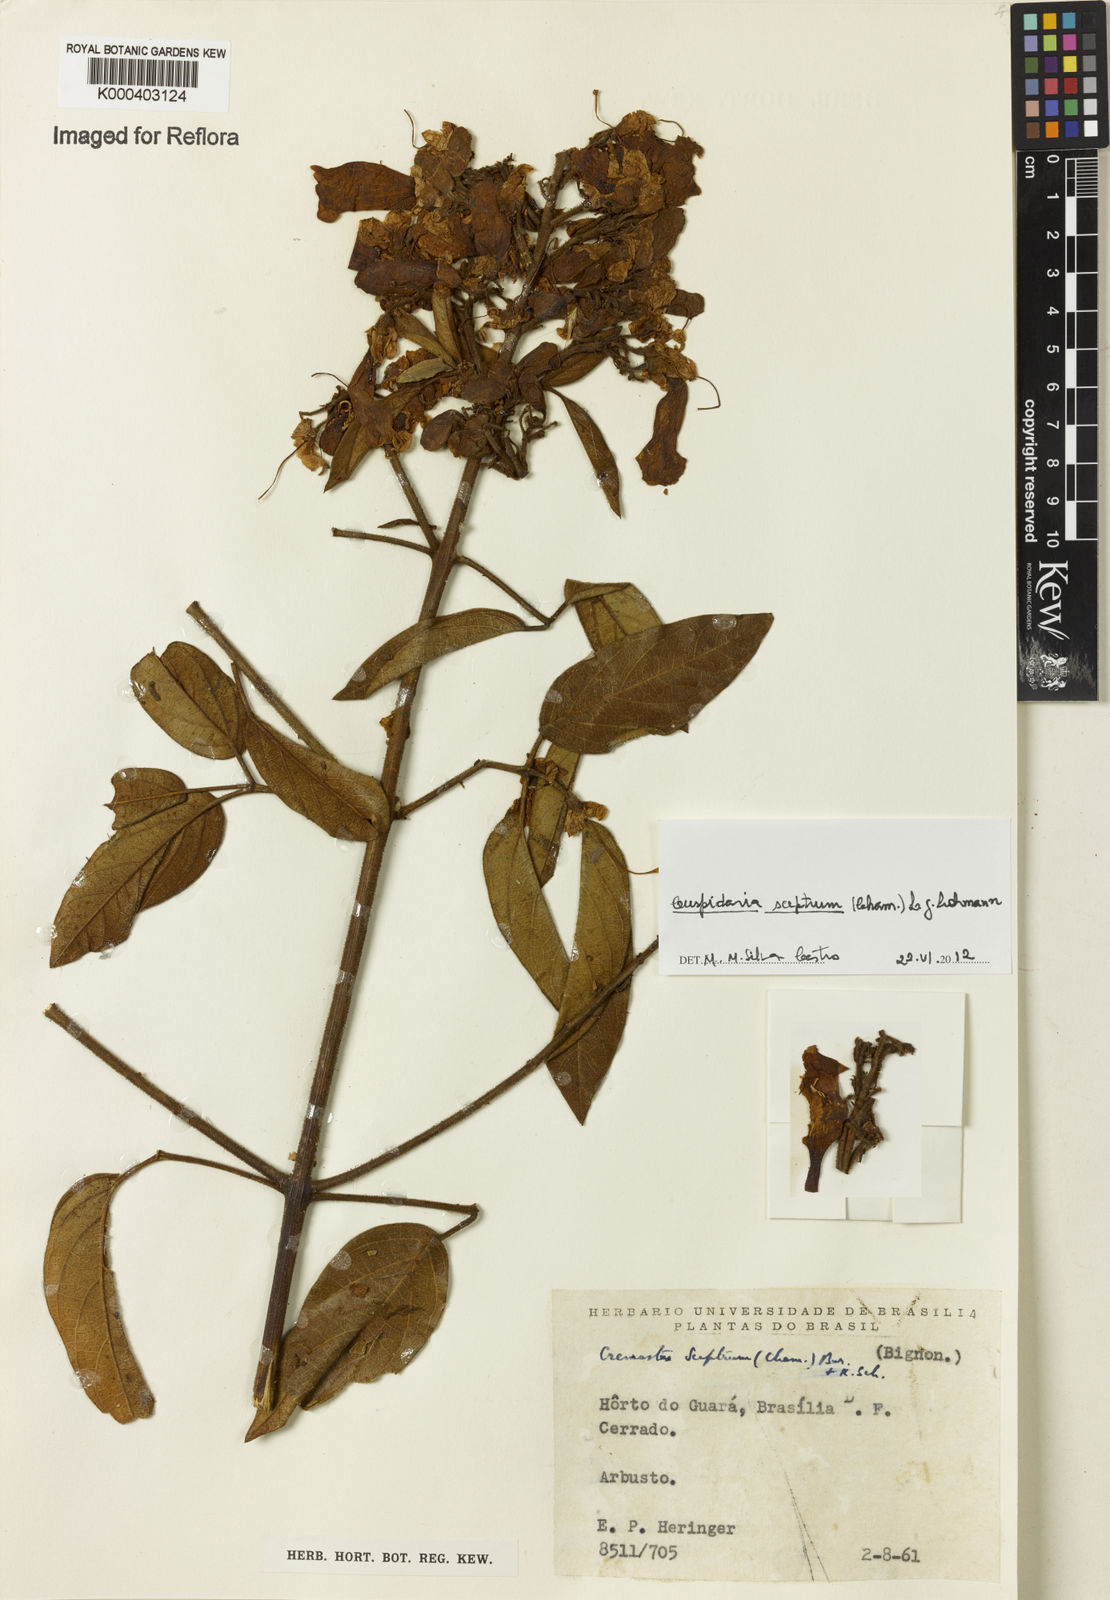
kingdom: Plantae
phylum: Tracheophyta
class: Magnoliopsida
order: Lamiales
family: Bignoniaceae
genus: Cuspidaria
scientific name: Cuspidaria sceptrum
